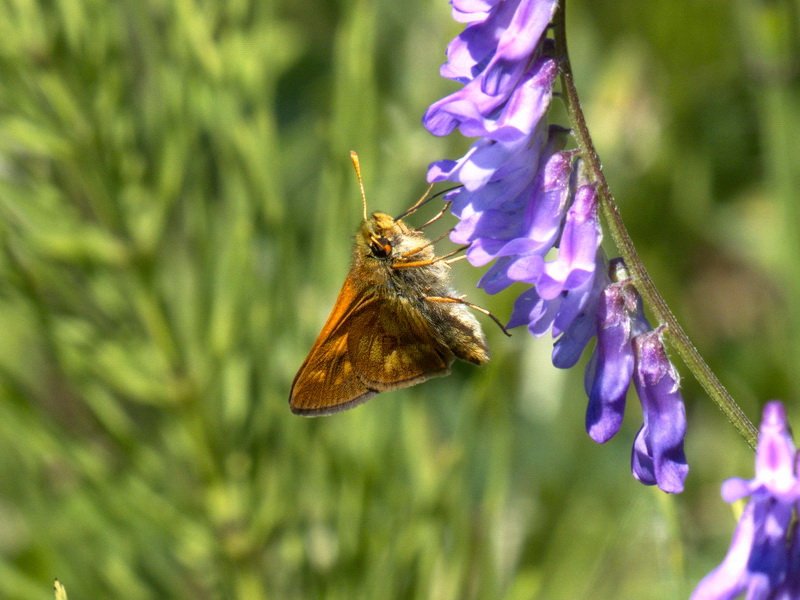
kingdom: Animalia
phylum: Arthropoda
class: Insecta
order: Lepidoptera
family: Hesperiidae
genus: Polites
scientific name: Polites
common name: Long Dash Skipper
